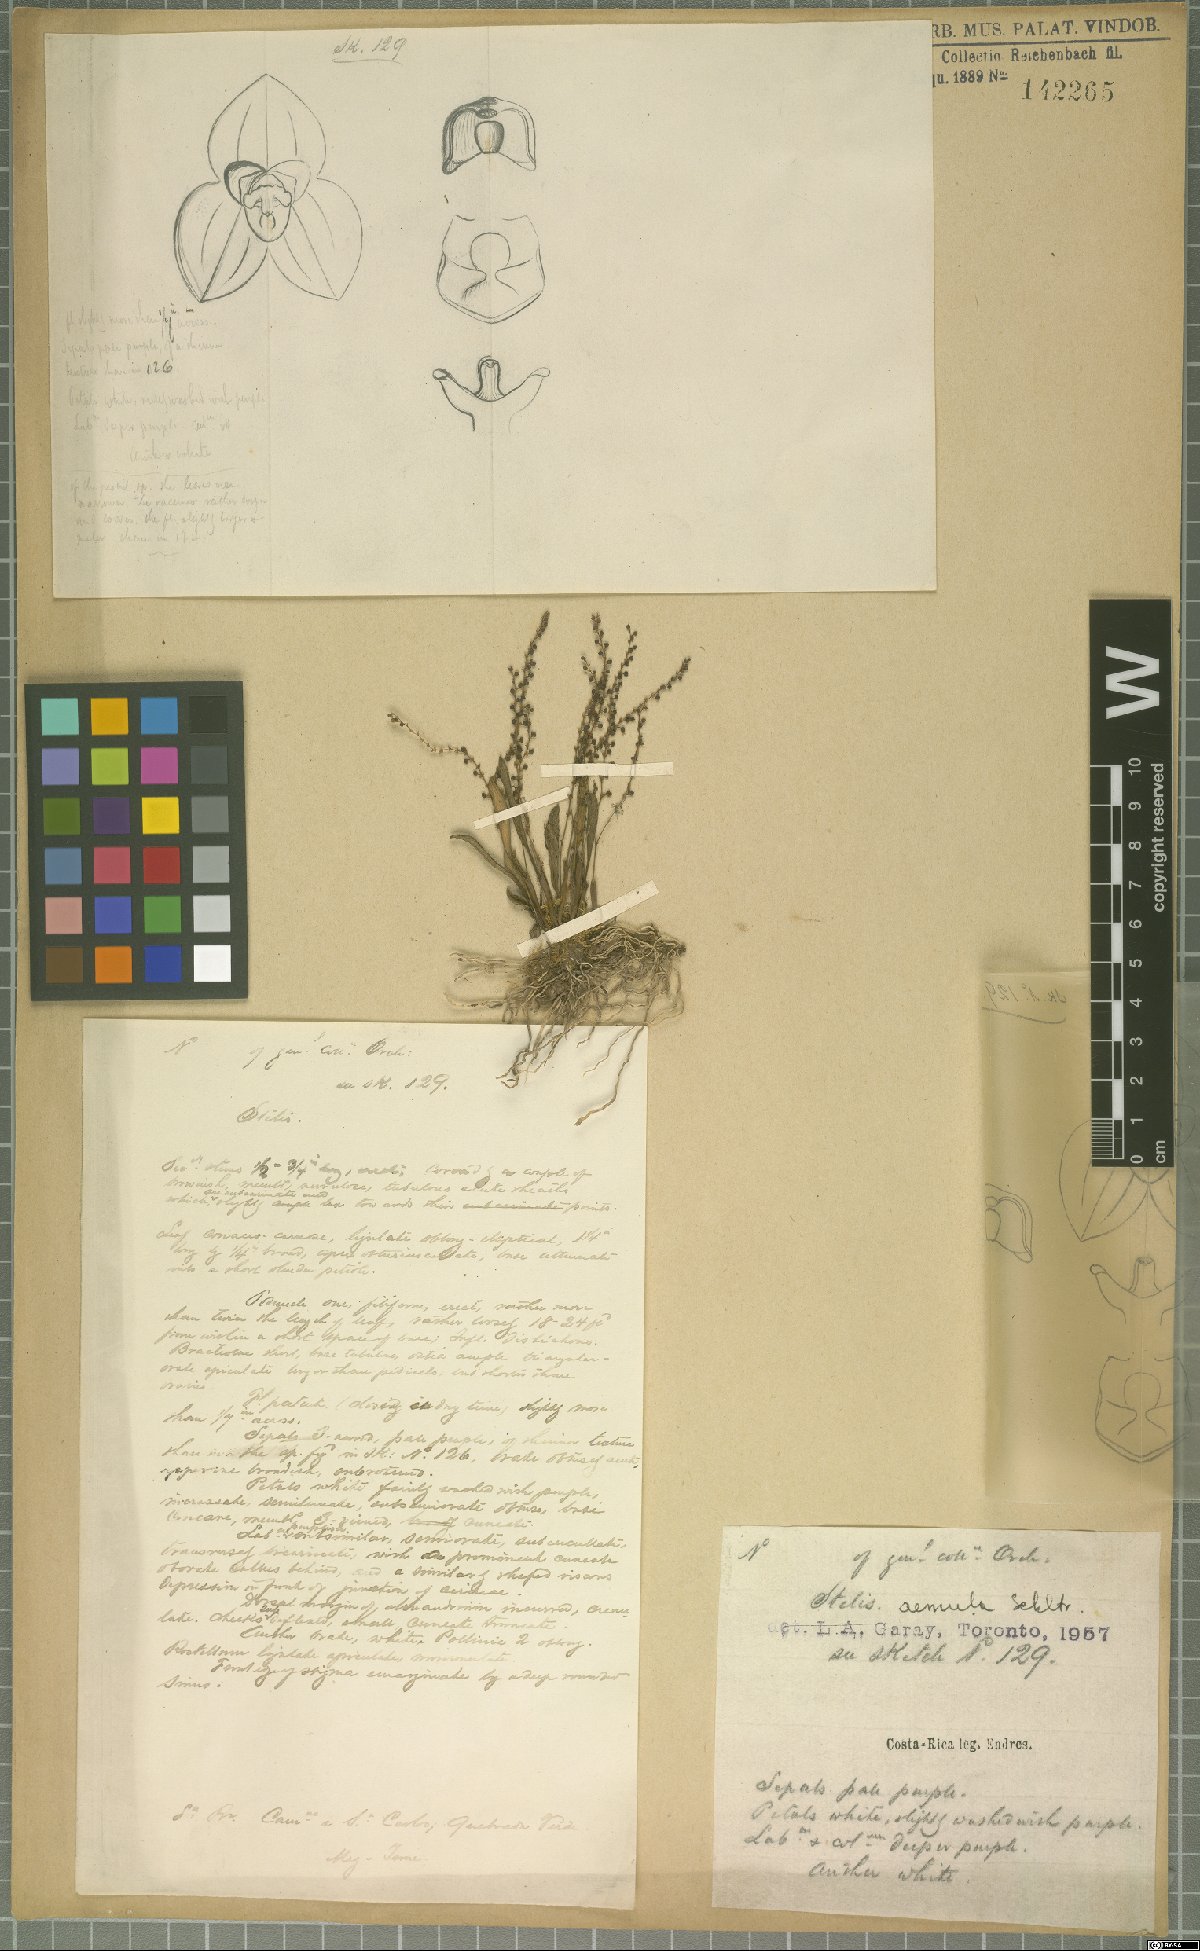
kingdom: Plantae
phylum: Tracheophyta
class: Liliopsida
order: Asparagales
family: Orchidaceae
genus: Stelis
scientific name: Stelis aemula
